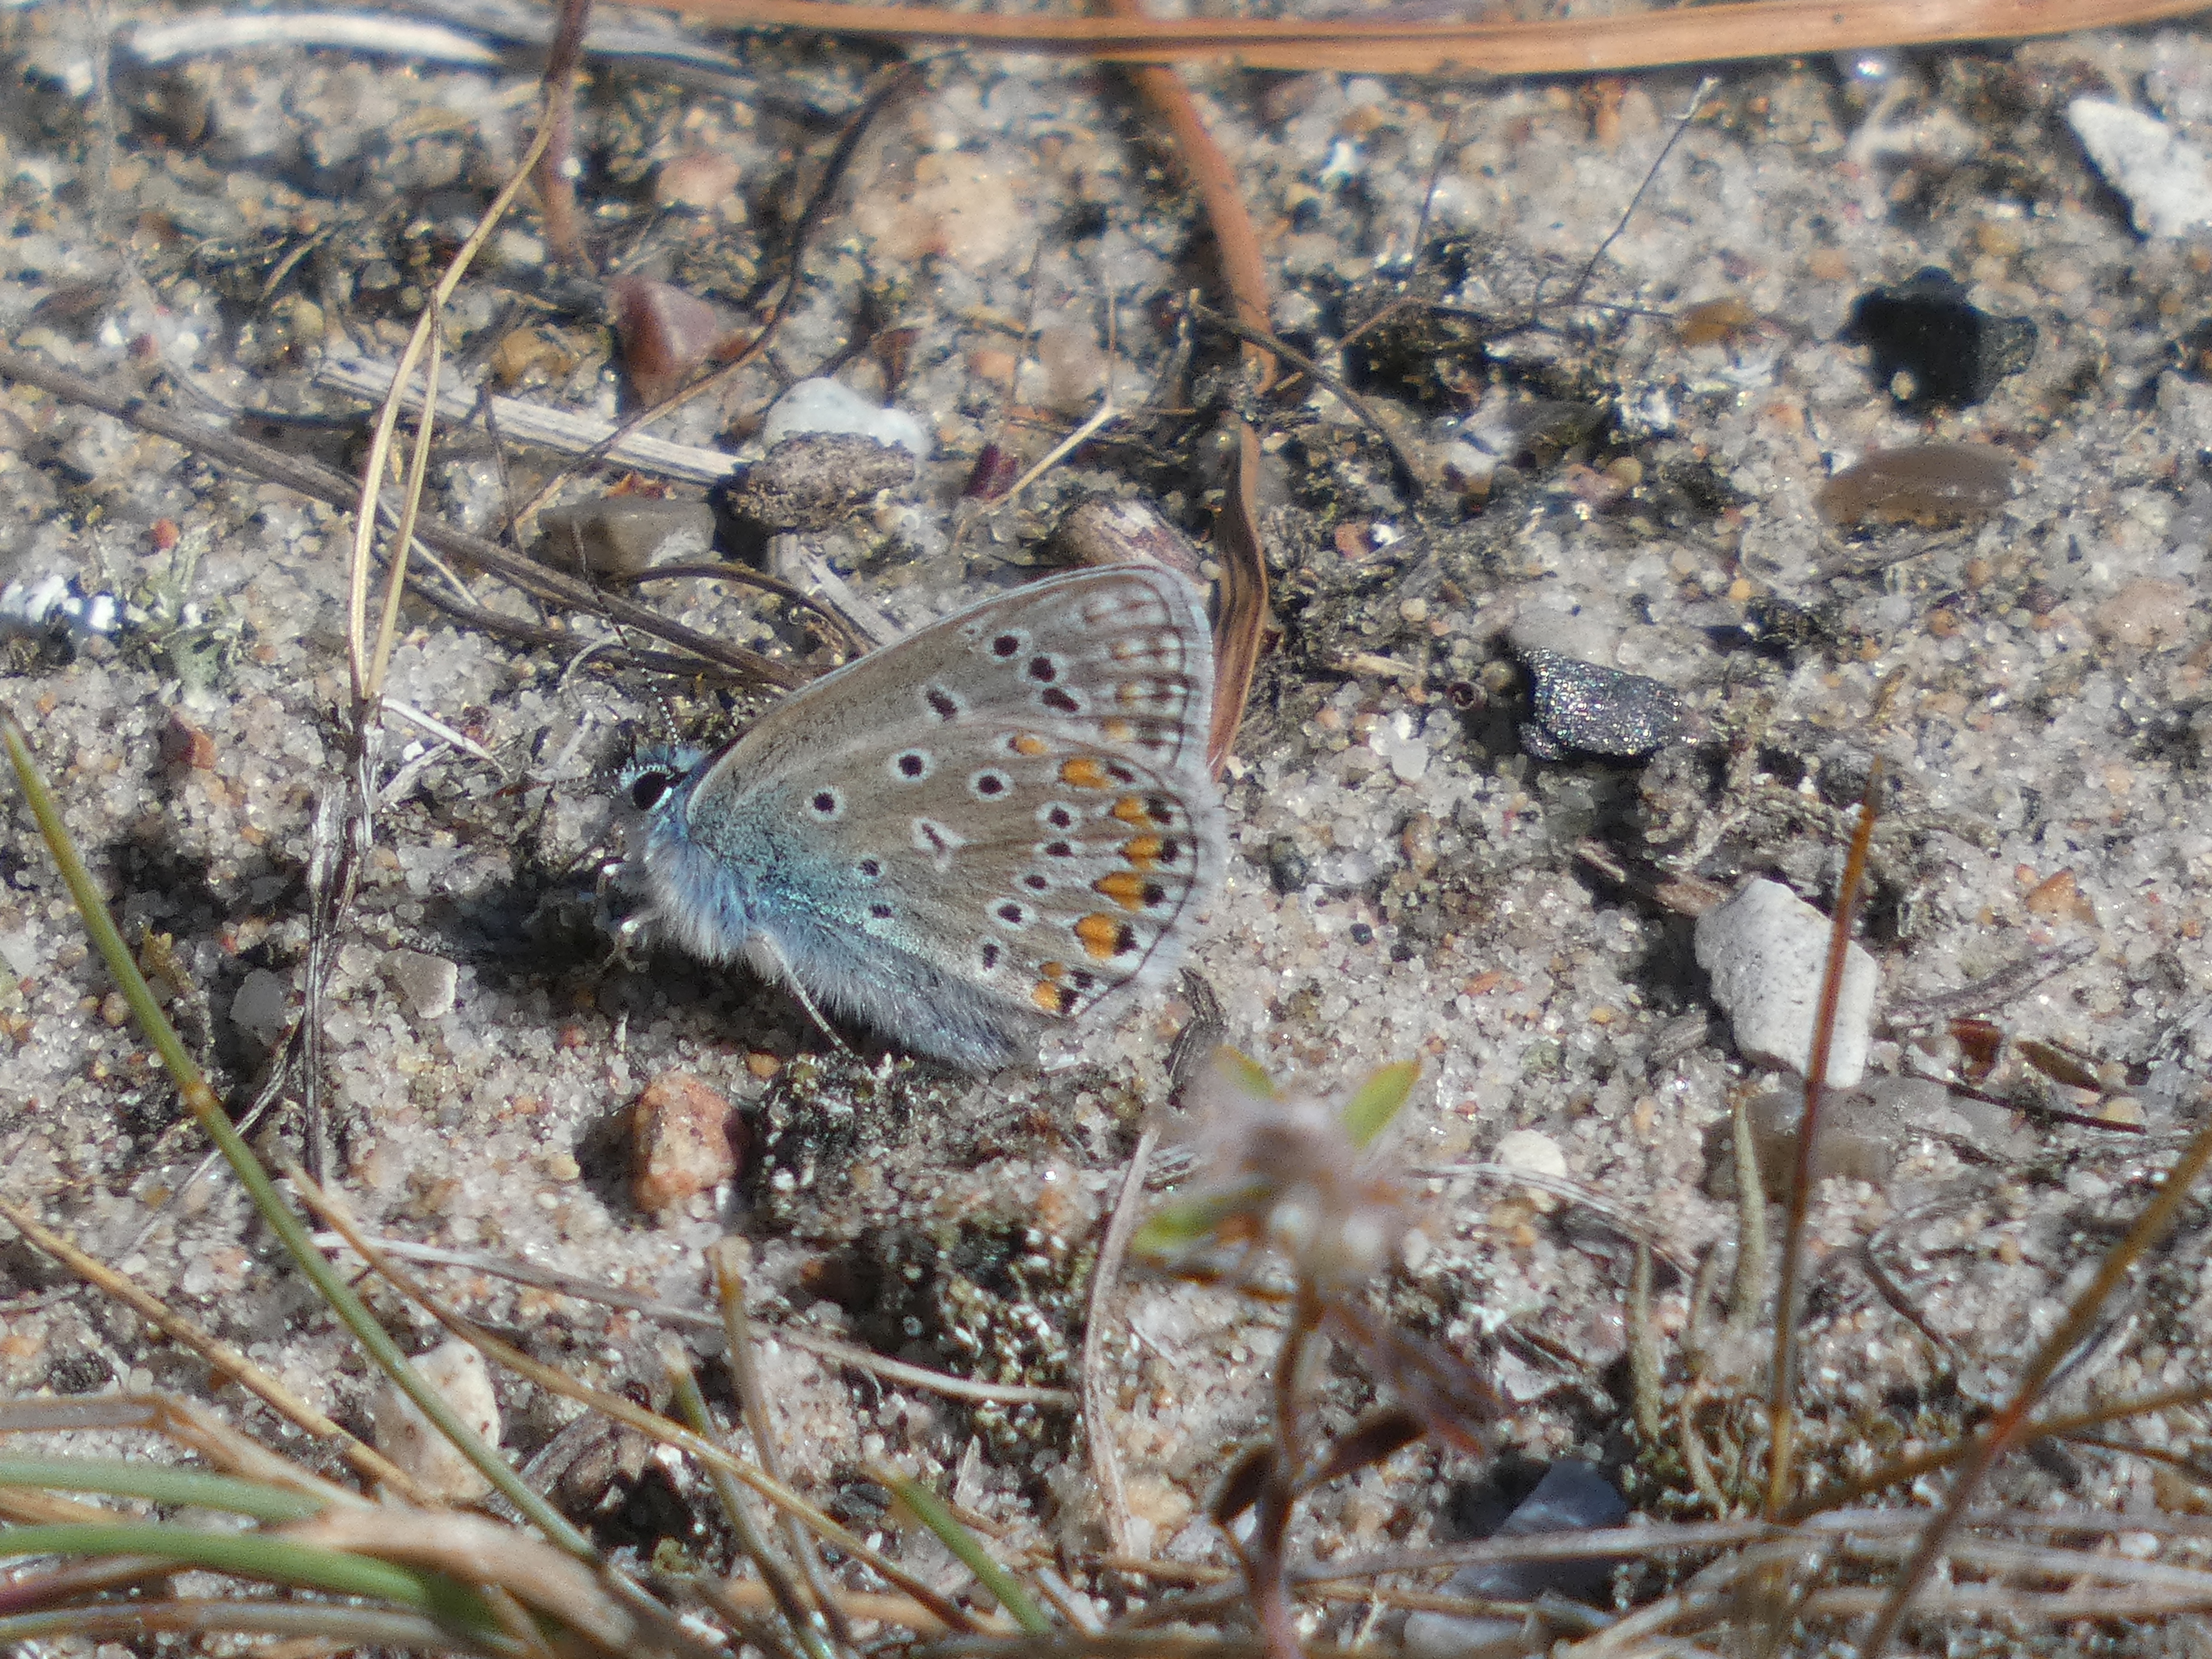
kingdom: Animalia
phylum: Arthropoda
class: Insecta
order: Lepidoptera
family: Lycaenidae
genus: Polyommatus
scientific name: Polyommatus icarus
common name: Almindelig blåfugl
